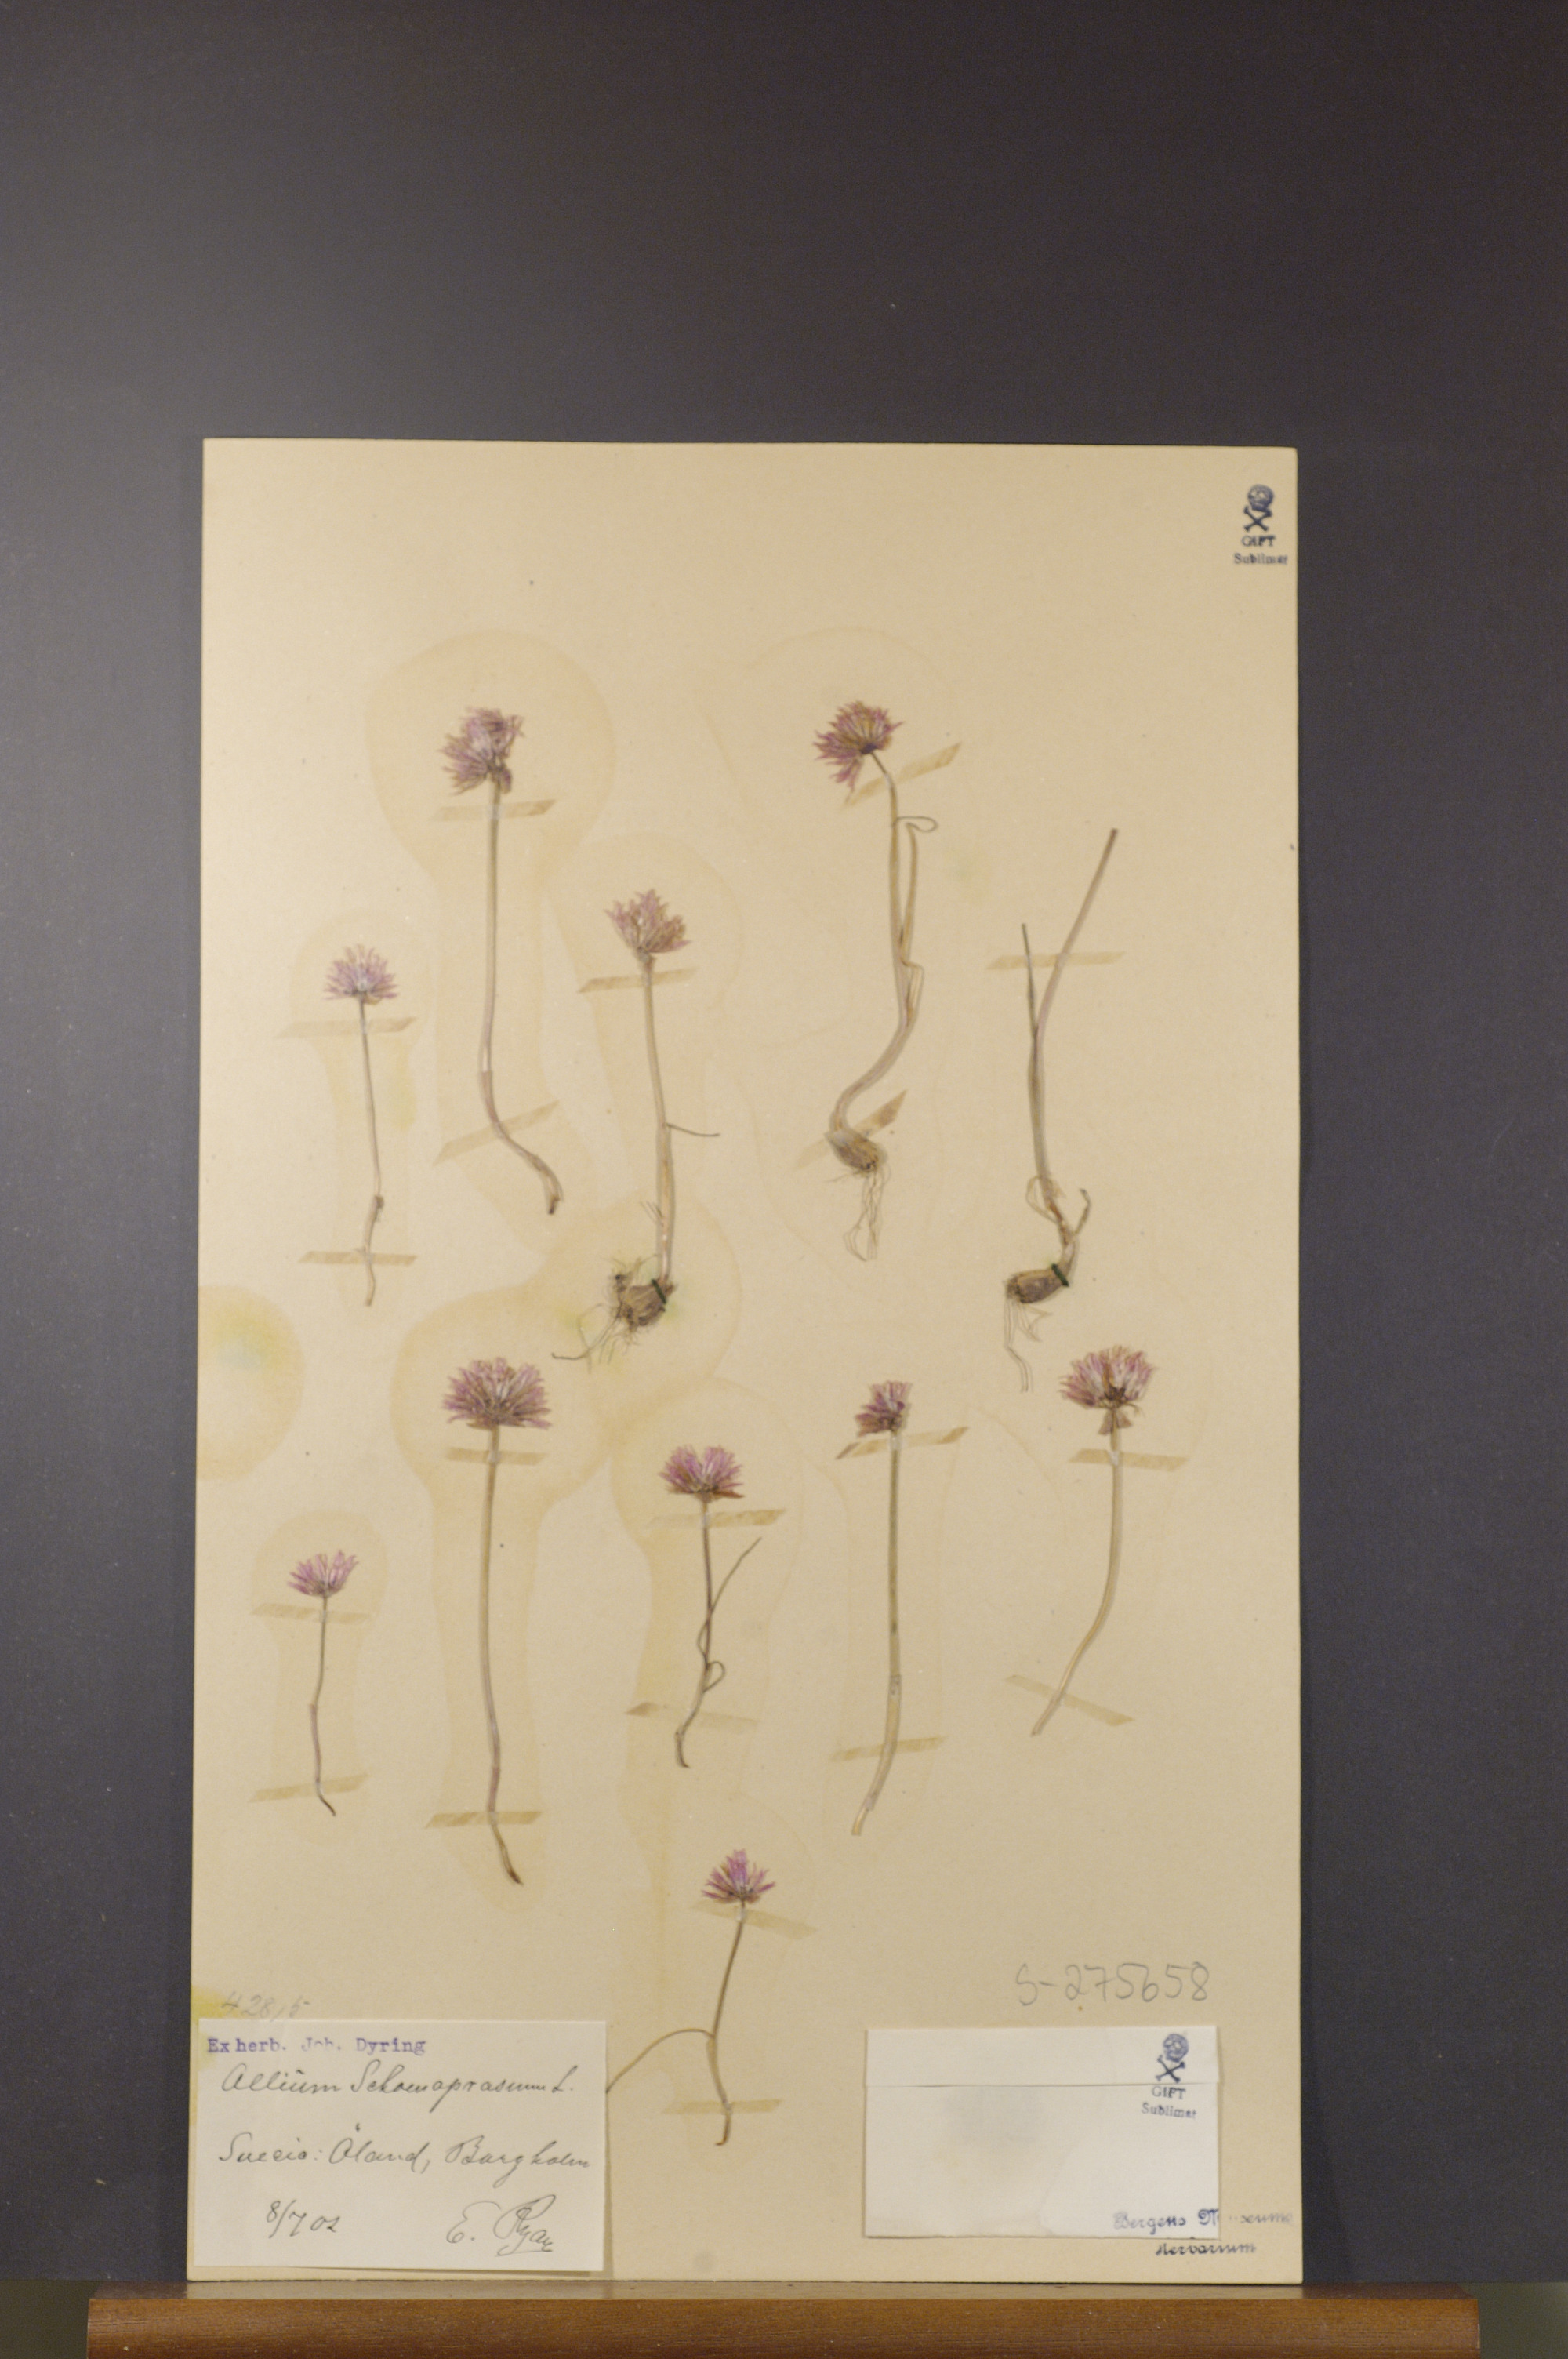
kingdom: Plantae
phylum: Tracheophyta
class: Liliopsida
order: Asparagales
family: Amaryllidaceae
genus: Allium
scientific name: Allium schoenoprasum
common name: Chives
